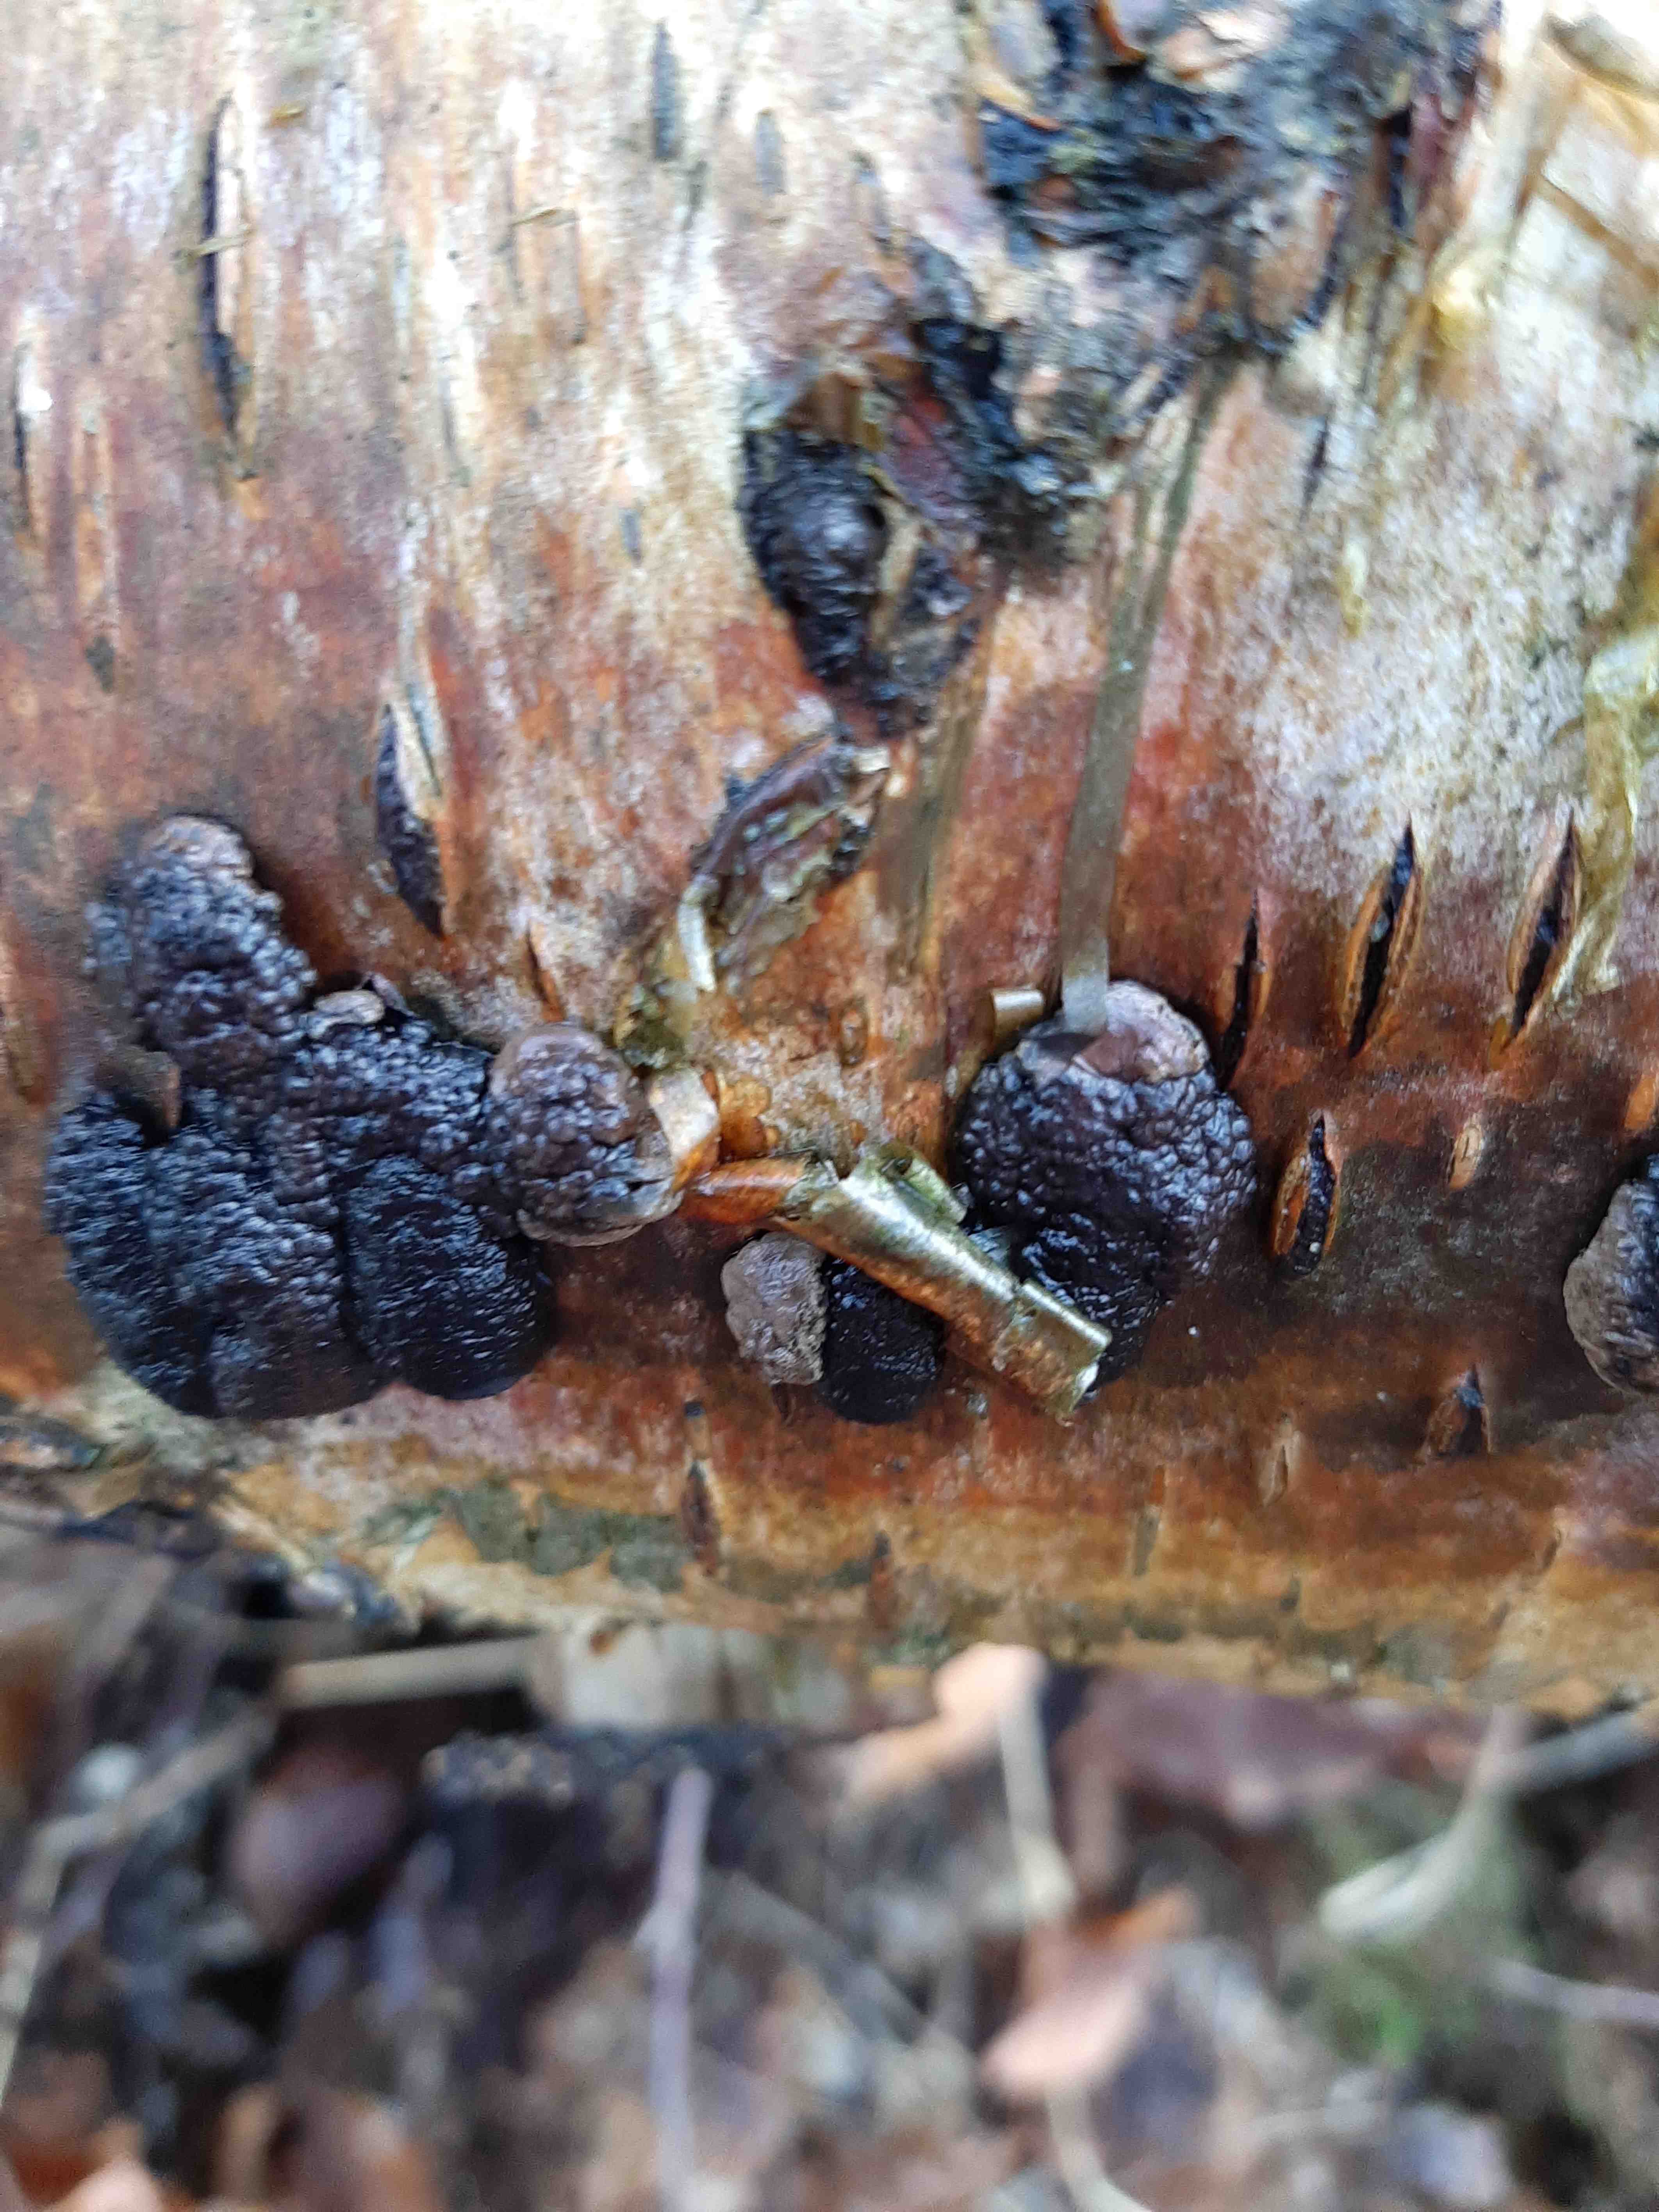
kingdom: Fungi
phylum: Ascomycota
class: Sordariomycetes
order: Xylariales
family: Hypoxylaceae
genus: Jackrogersella
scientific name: Jackrogersella multiformis
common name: foranderlig kulbær
